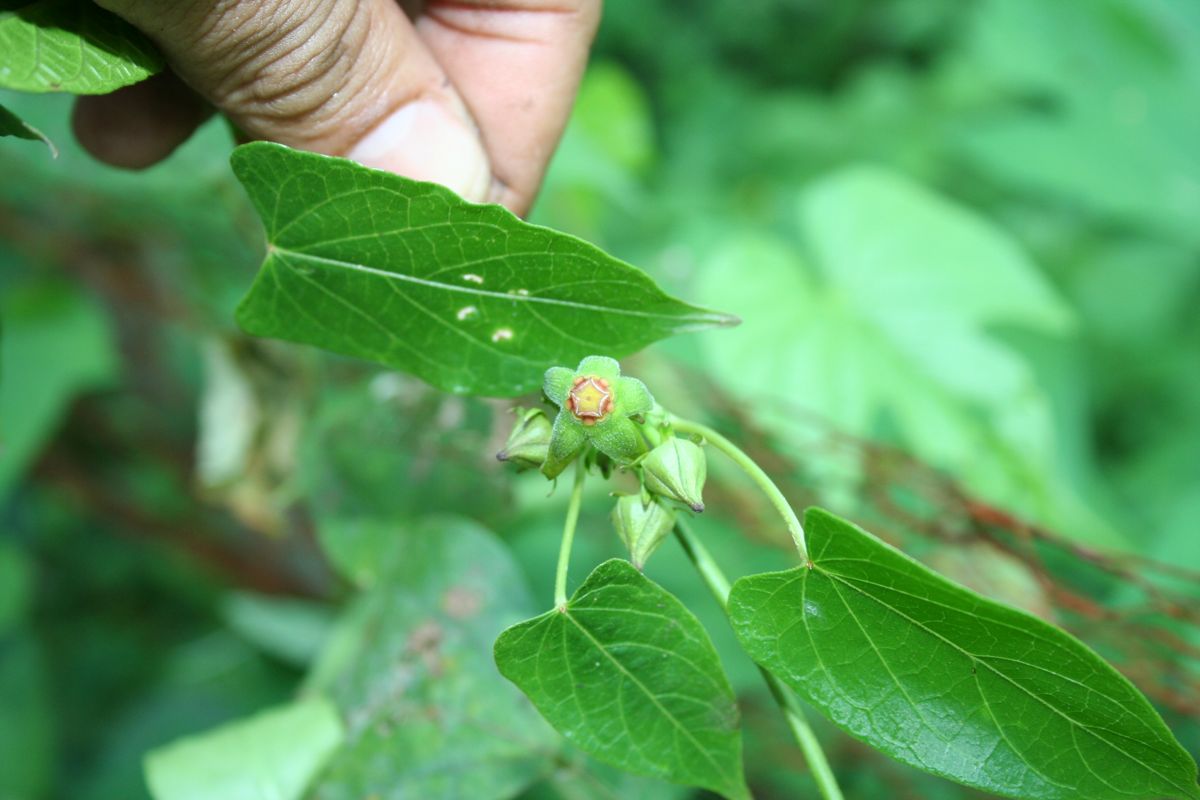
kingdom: Plantae
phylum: Tracheophyta
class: Magnoliopsida
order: Gentianales
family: Apocynaceae
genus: Gonolobus
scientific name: Gonolobus taylorianus
